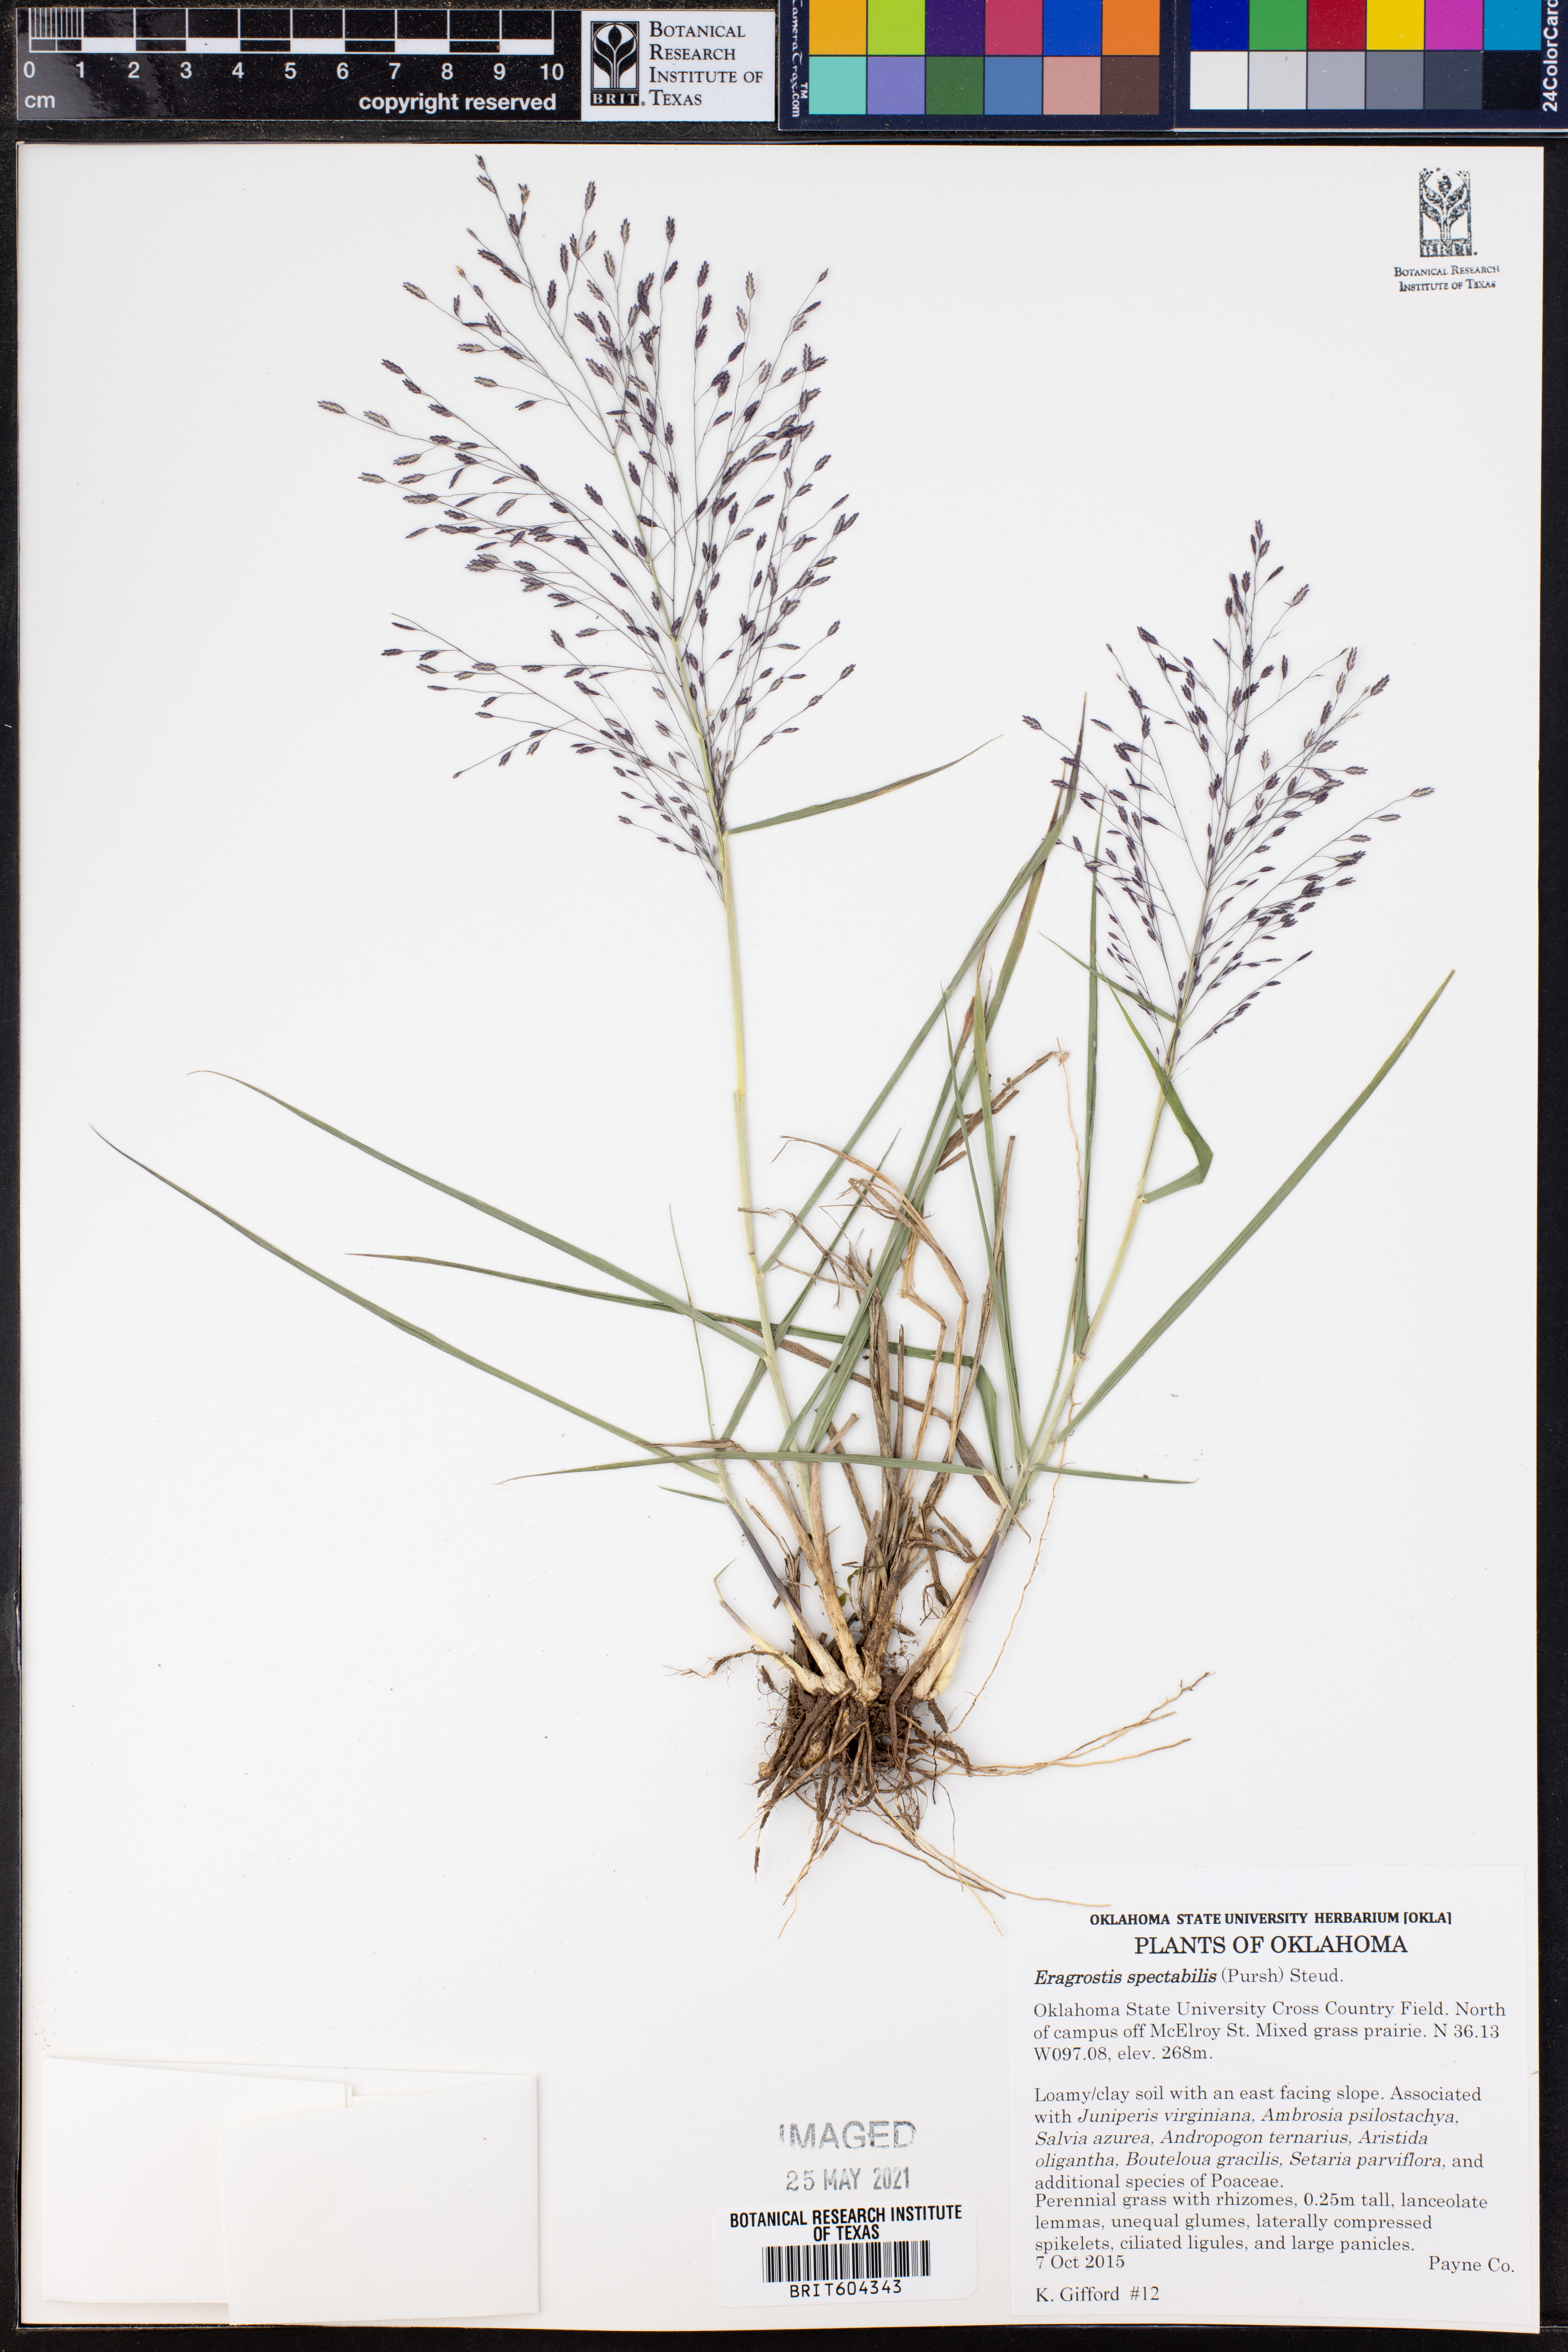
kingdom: Plantae
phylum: Tracheophyta
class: Liliopsida
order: Poales
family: Poaceae
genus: Eragrostis
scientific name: Eragrostis spectabilis
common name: Petticoat-climber
